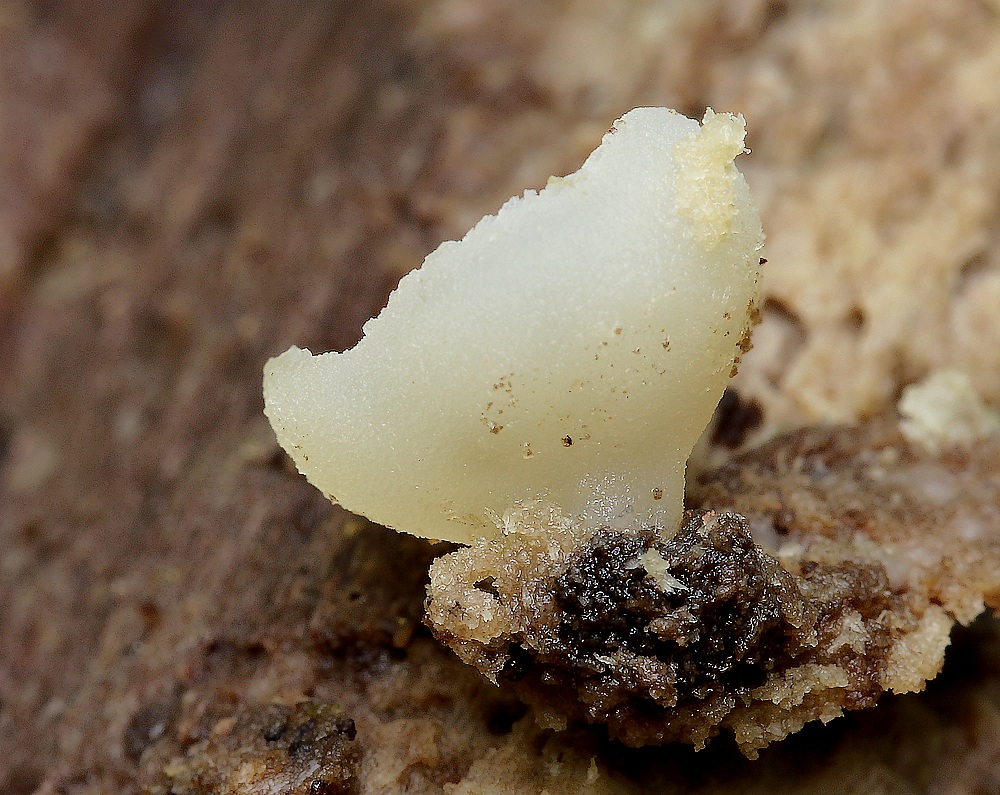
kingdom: Fungi
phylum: Ascomycota
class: Pezizomycetes
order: Pezizales
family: Pezizaceae
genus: Peziza
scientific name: Peziza varia
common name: Ved-bægersvamp
